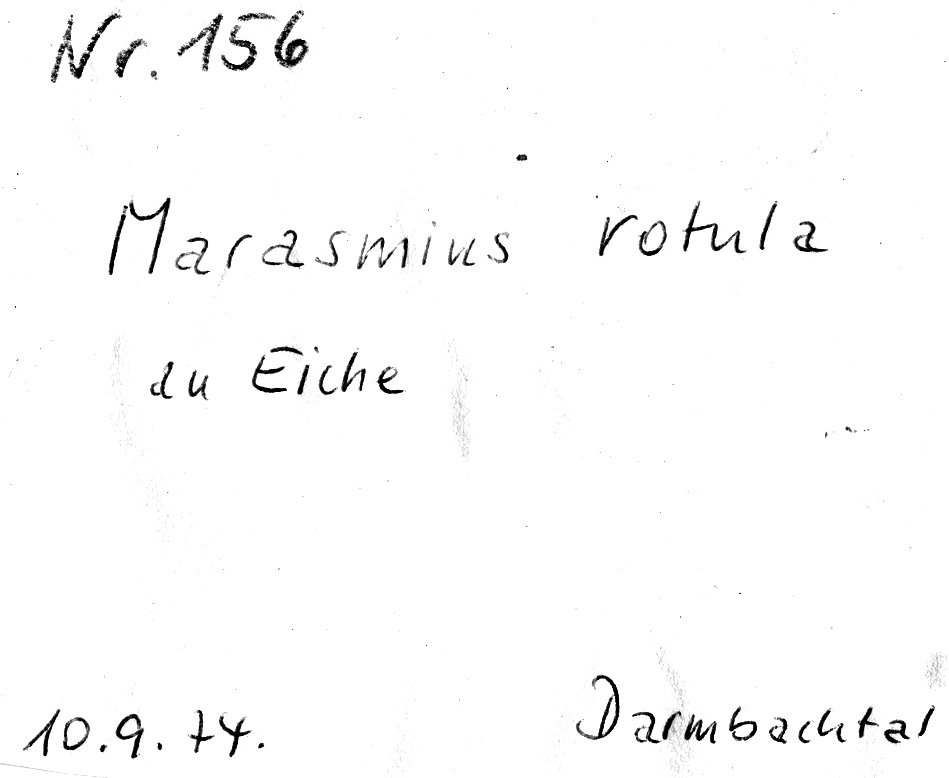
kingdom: Plantae
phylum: Tracheophyta
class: Magnoliopsida
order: Fagales
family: Fagaceae
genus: Quercus
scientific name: Quercus
